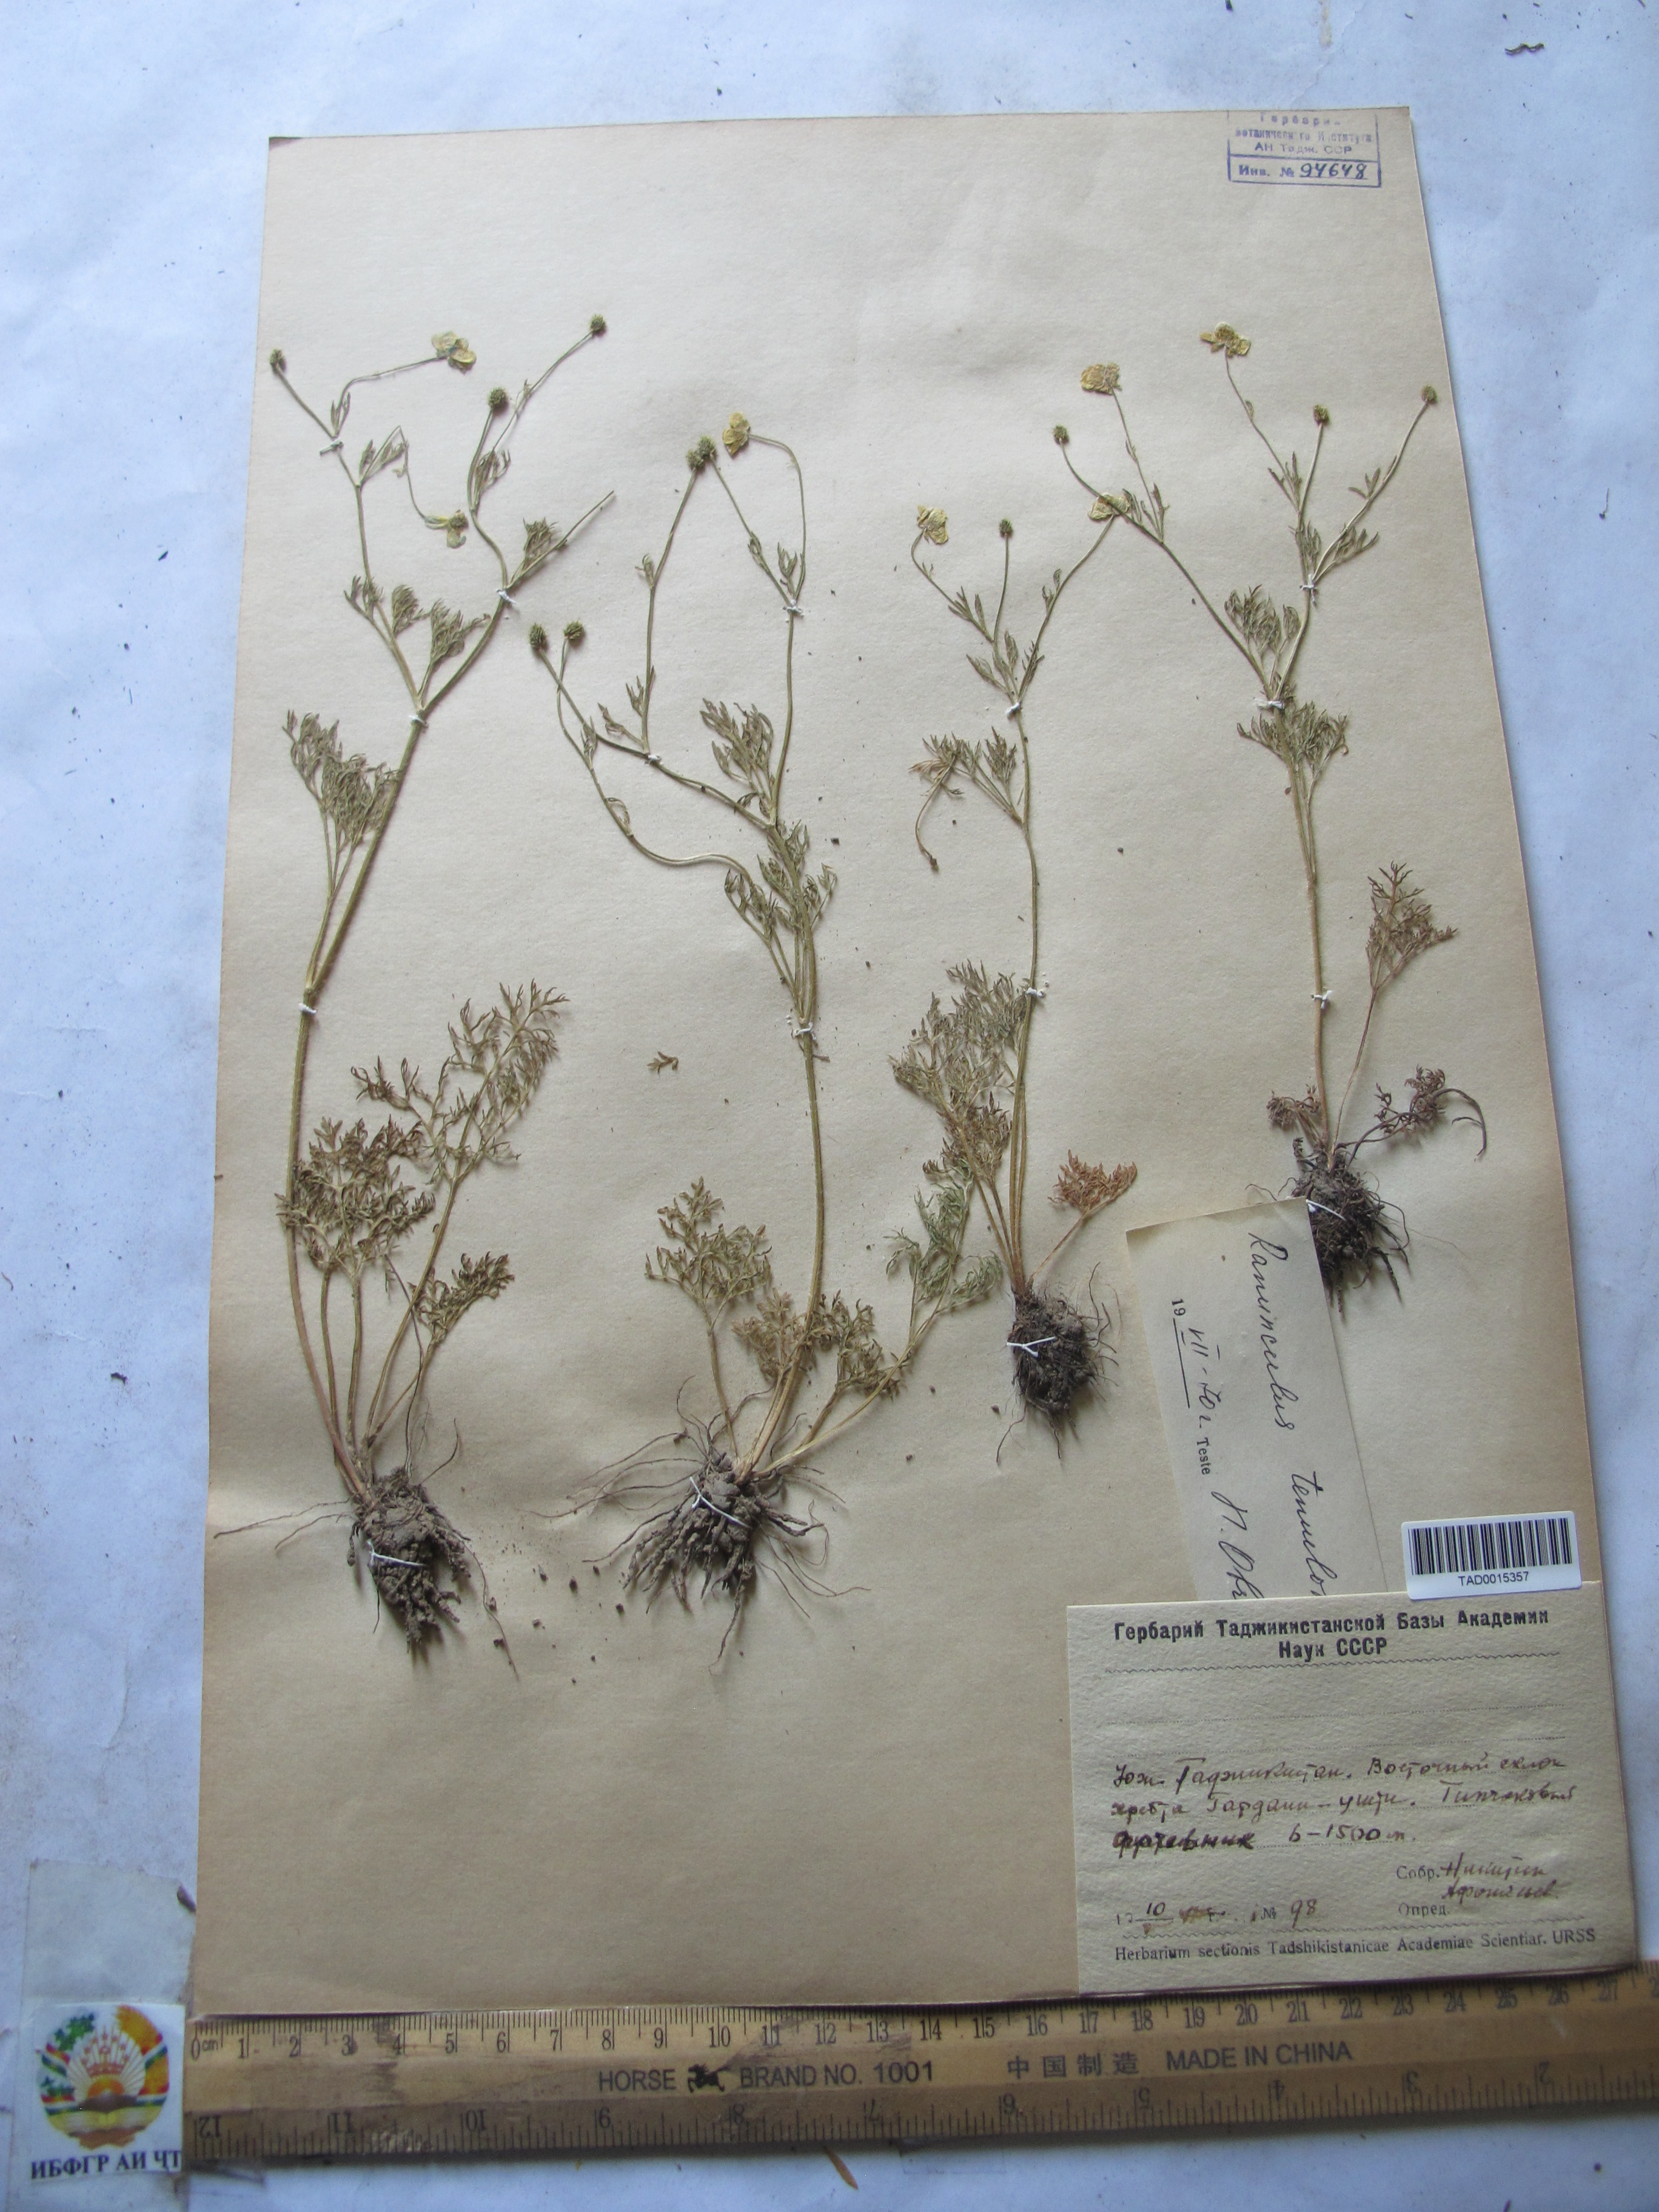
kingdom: Plantae
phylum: Tracheophyta
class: Magnoliopsida
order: Ranunculales
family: Ranunculaceae
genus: Ranunculus
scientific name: Ranunculus tenuilobus
